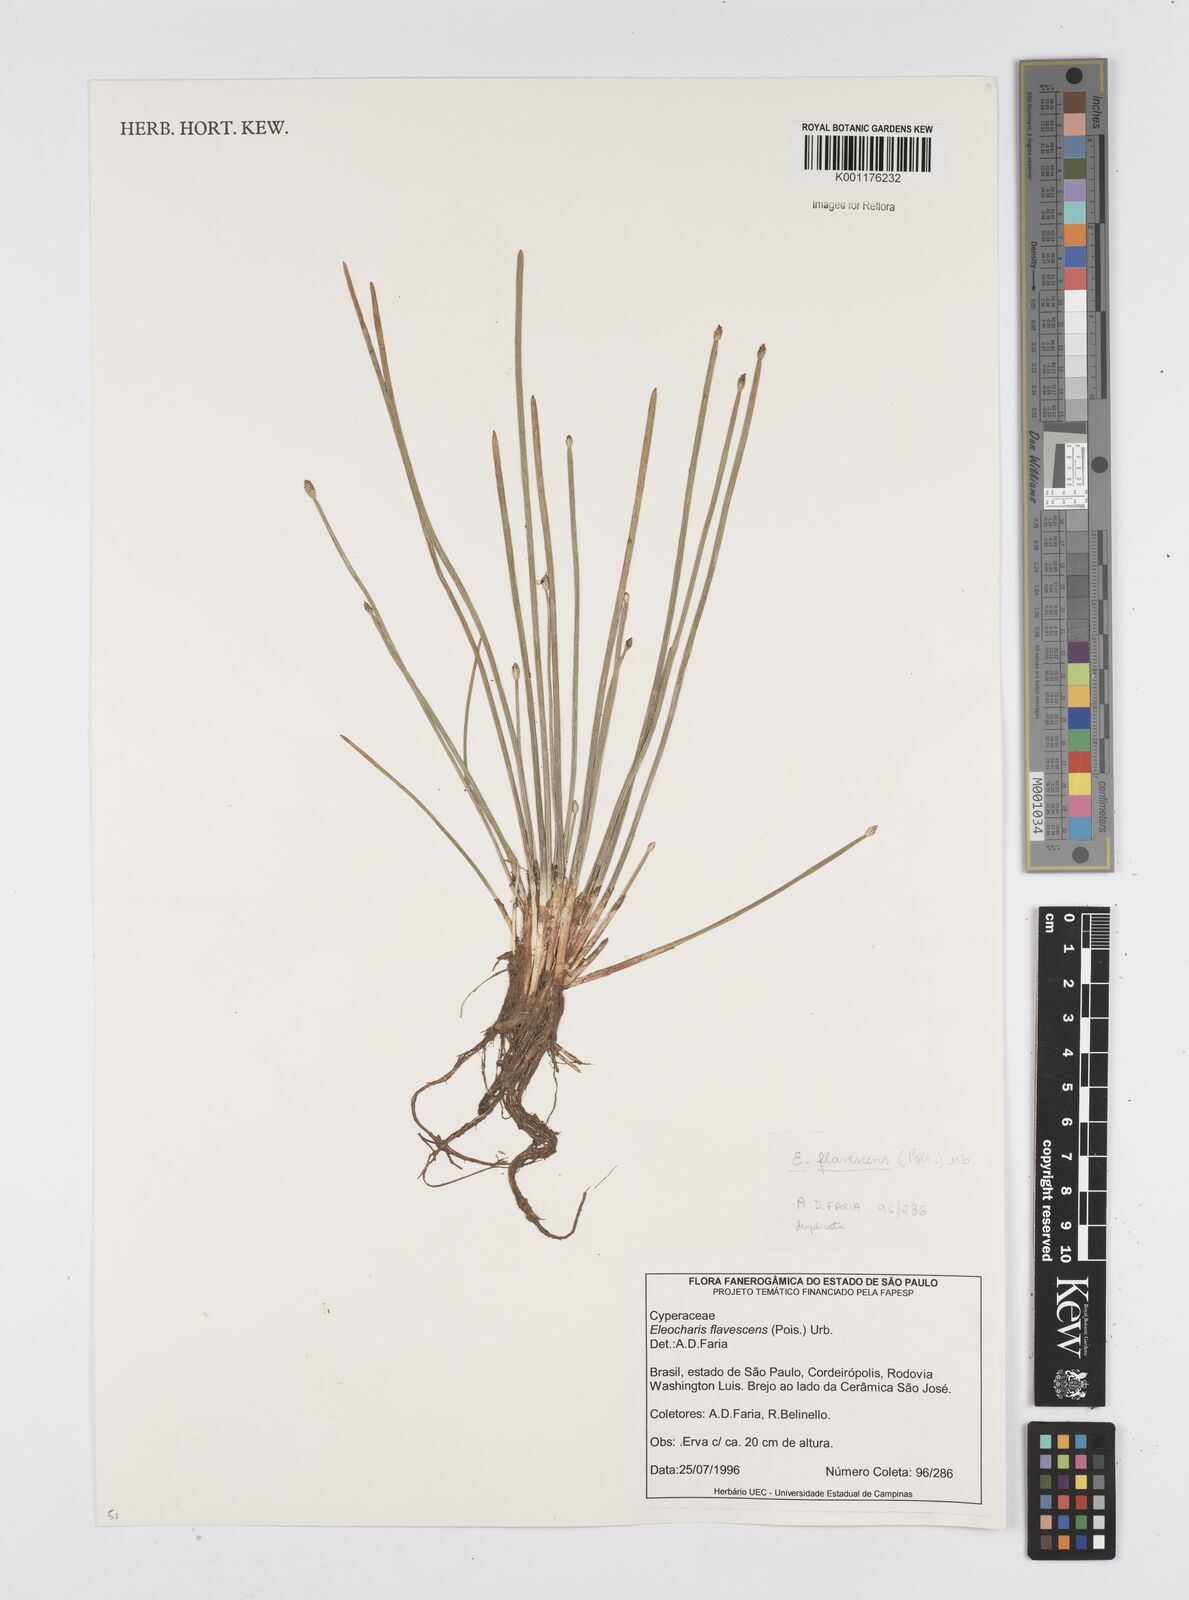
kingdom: Plantae
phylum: Tracheophyta
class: Liliopsida
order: Poales
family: Cyperaceae
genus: Eleocharis
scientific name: Eleocharis flavescens
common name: Yellow spikerush
